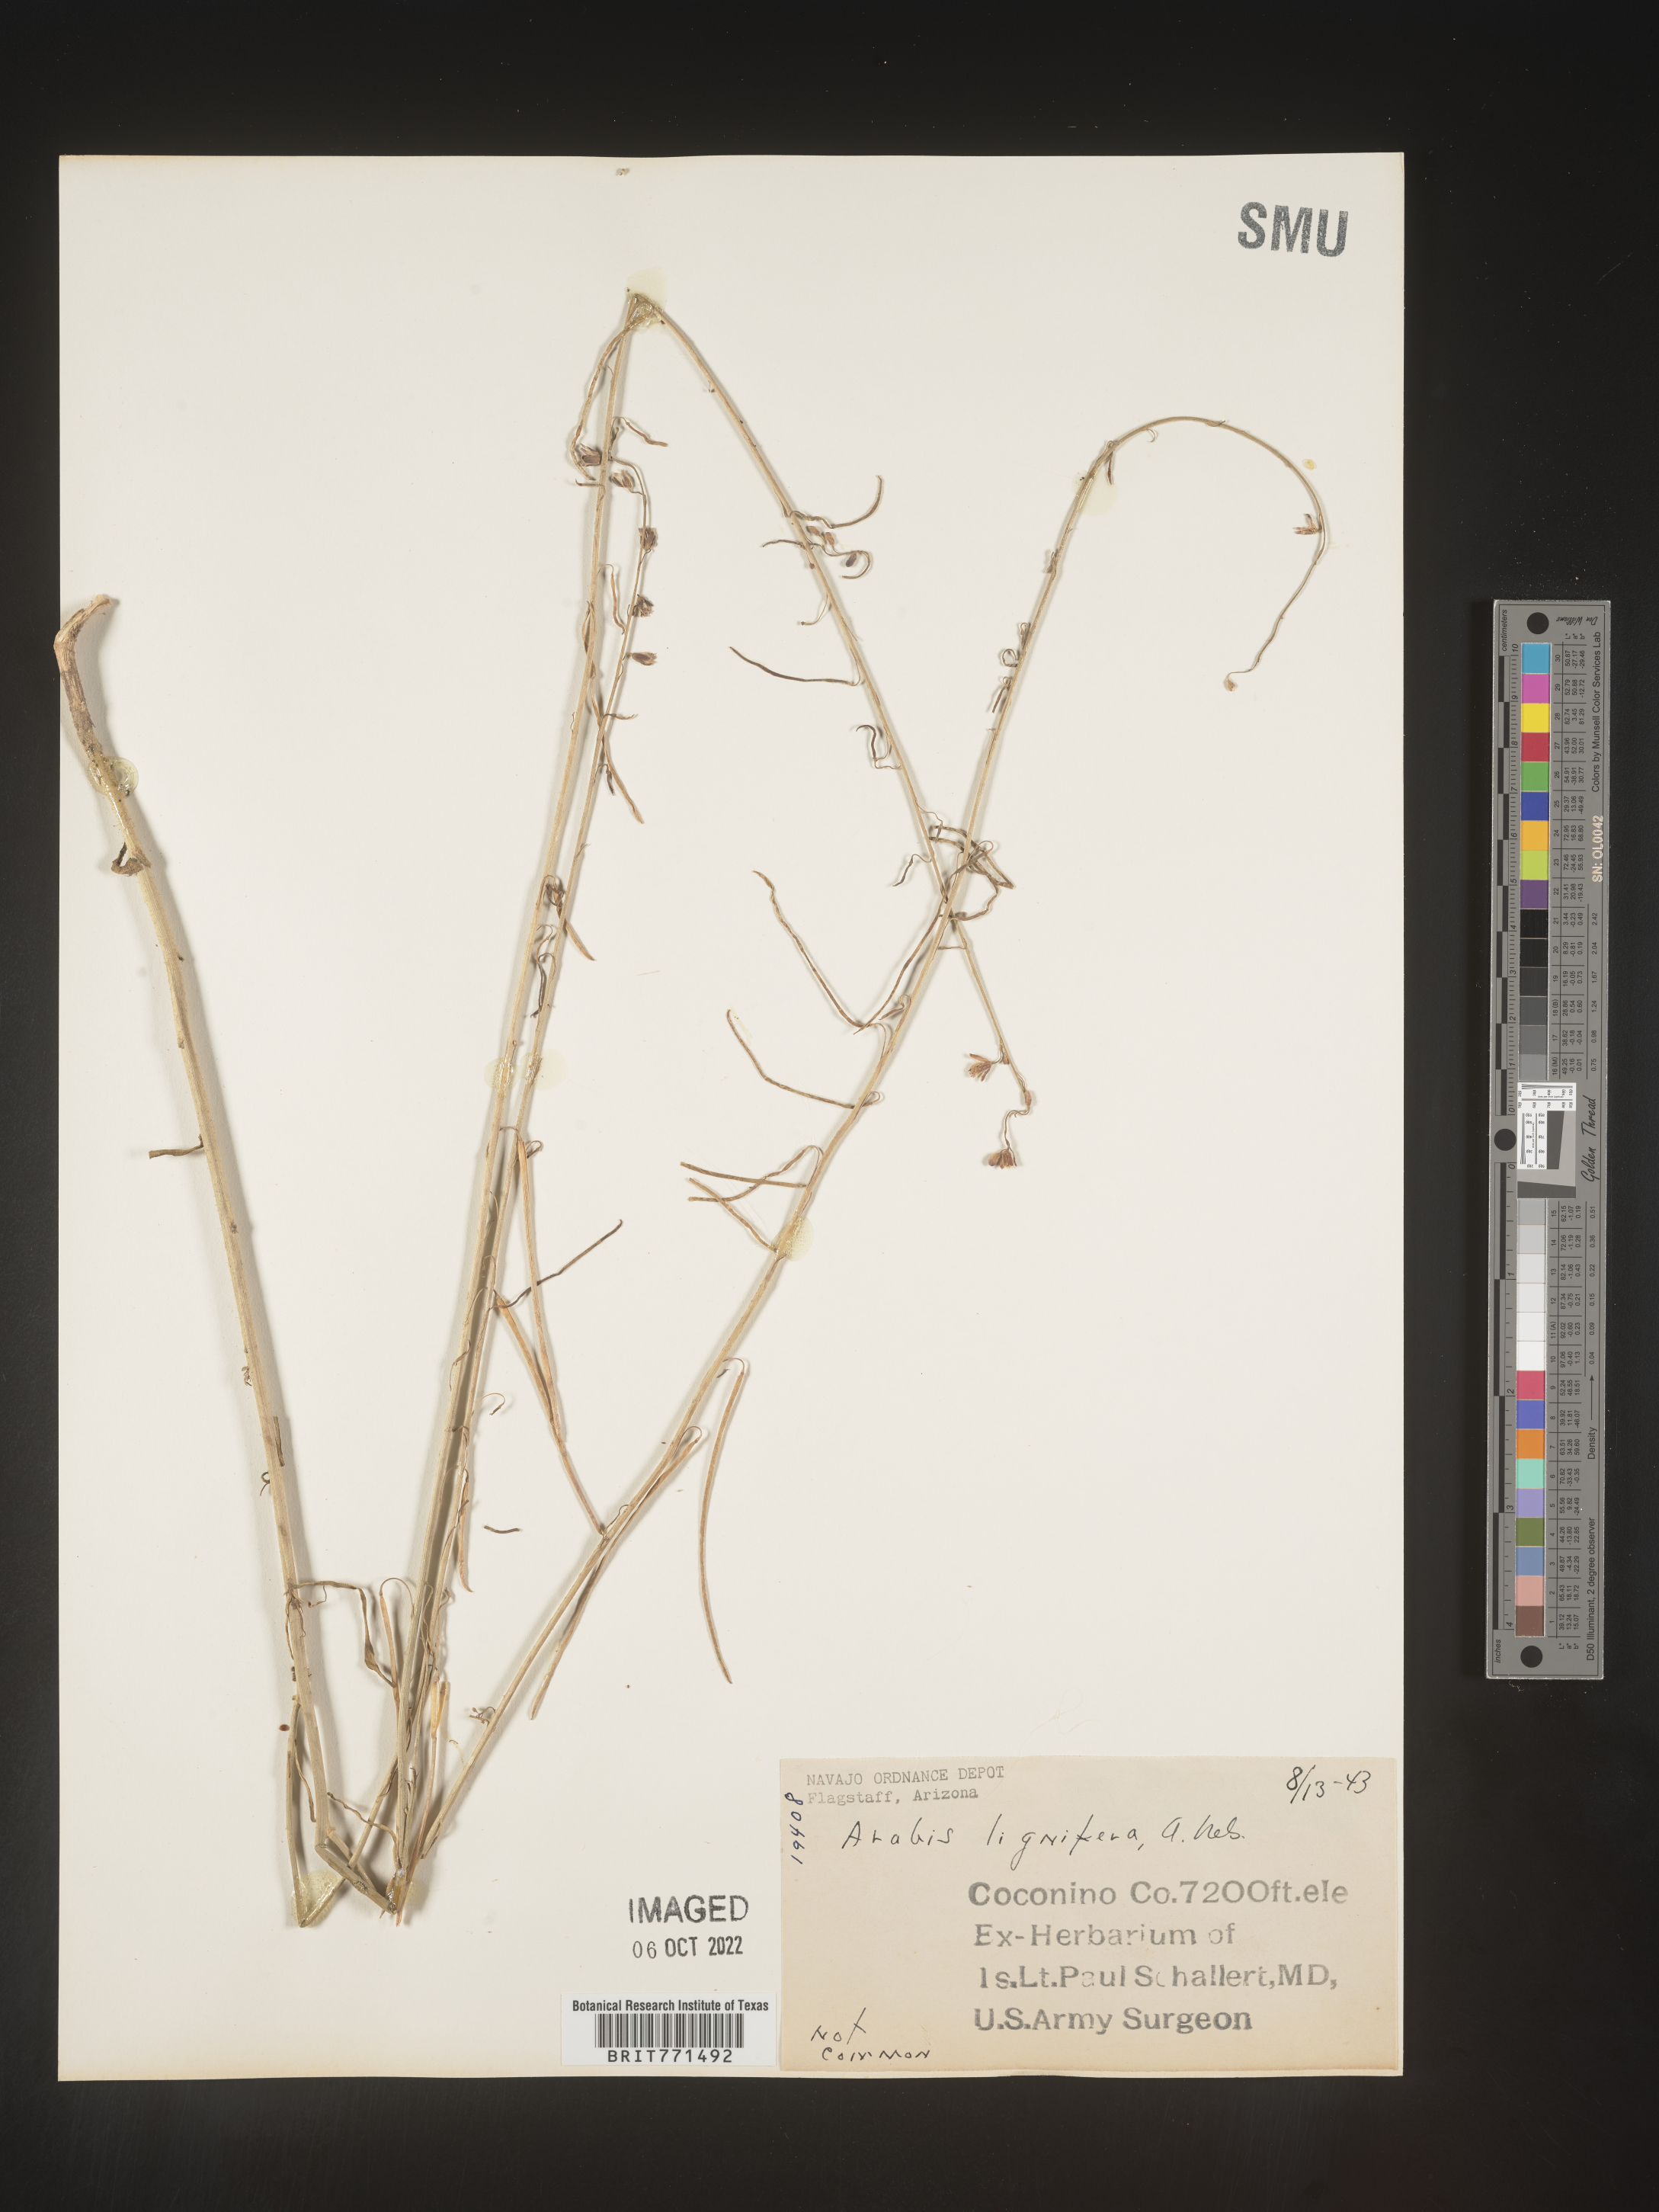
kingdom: Plantae
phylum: Tracheophyta
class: Magnoliopsida
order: Brassicales
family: Brassicaceae
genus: Arabis
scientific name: Arabis
